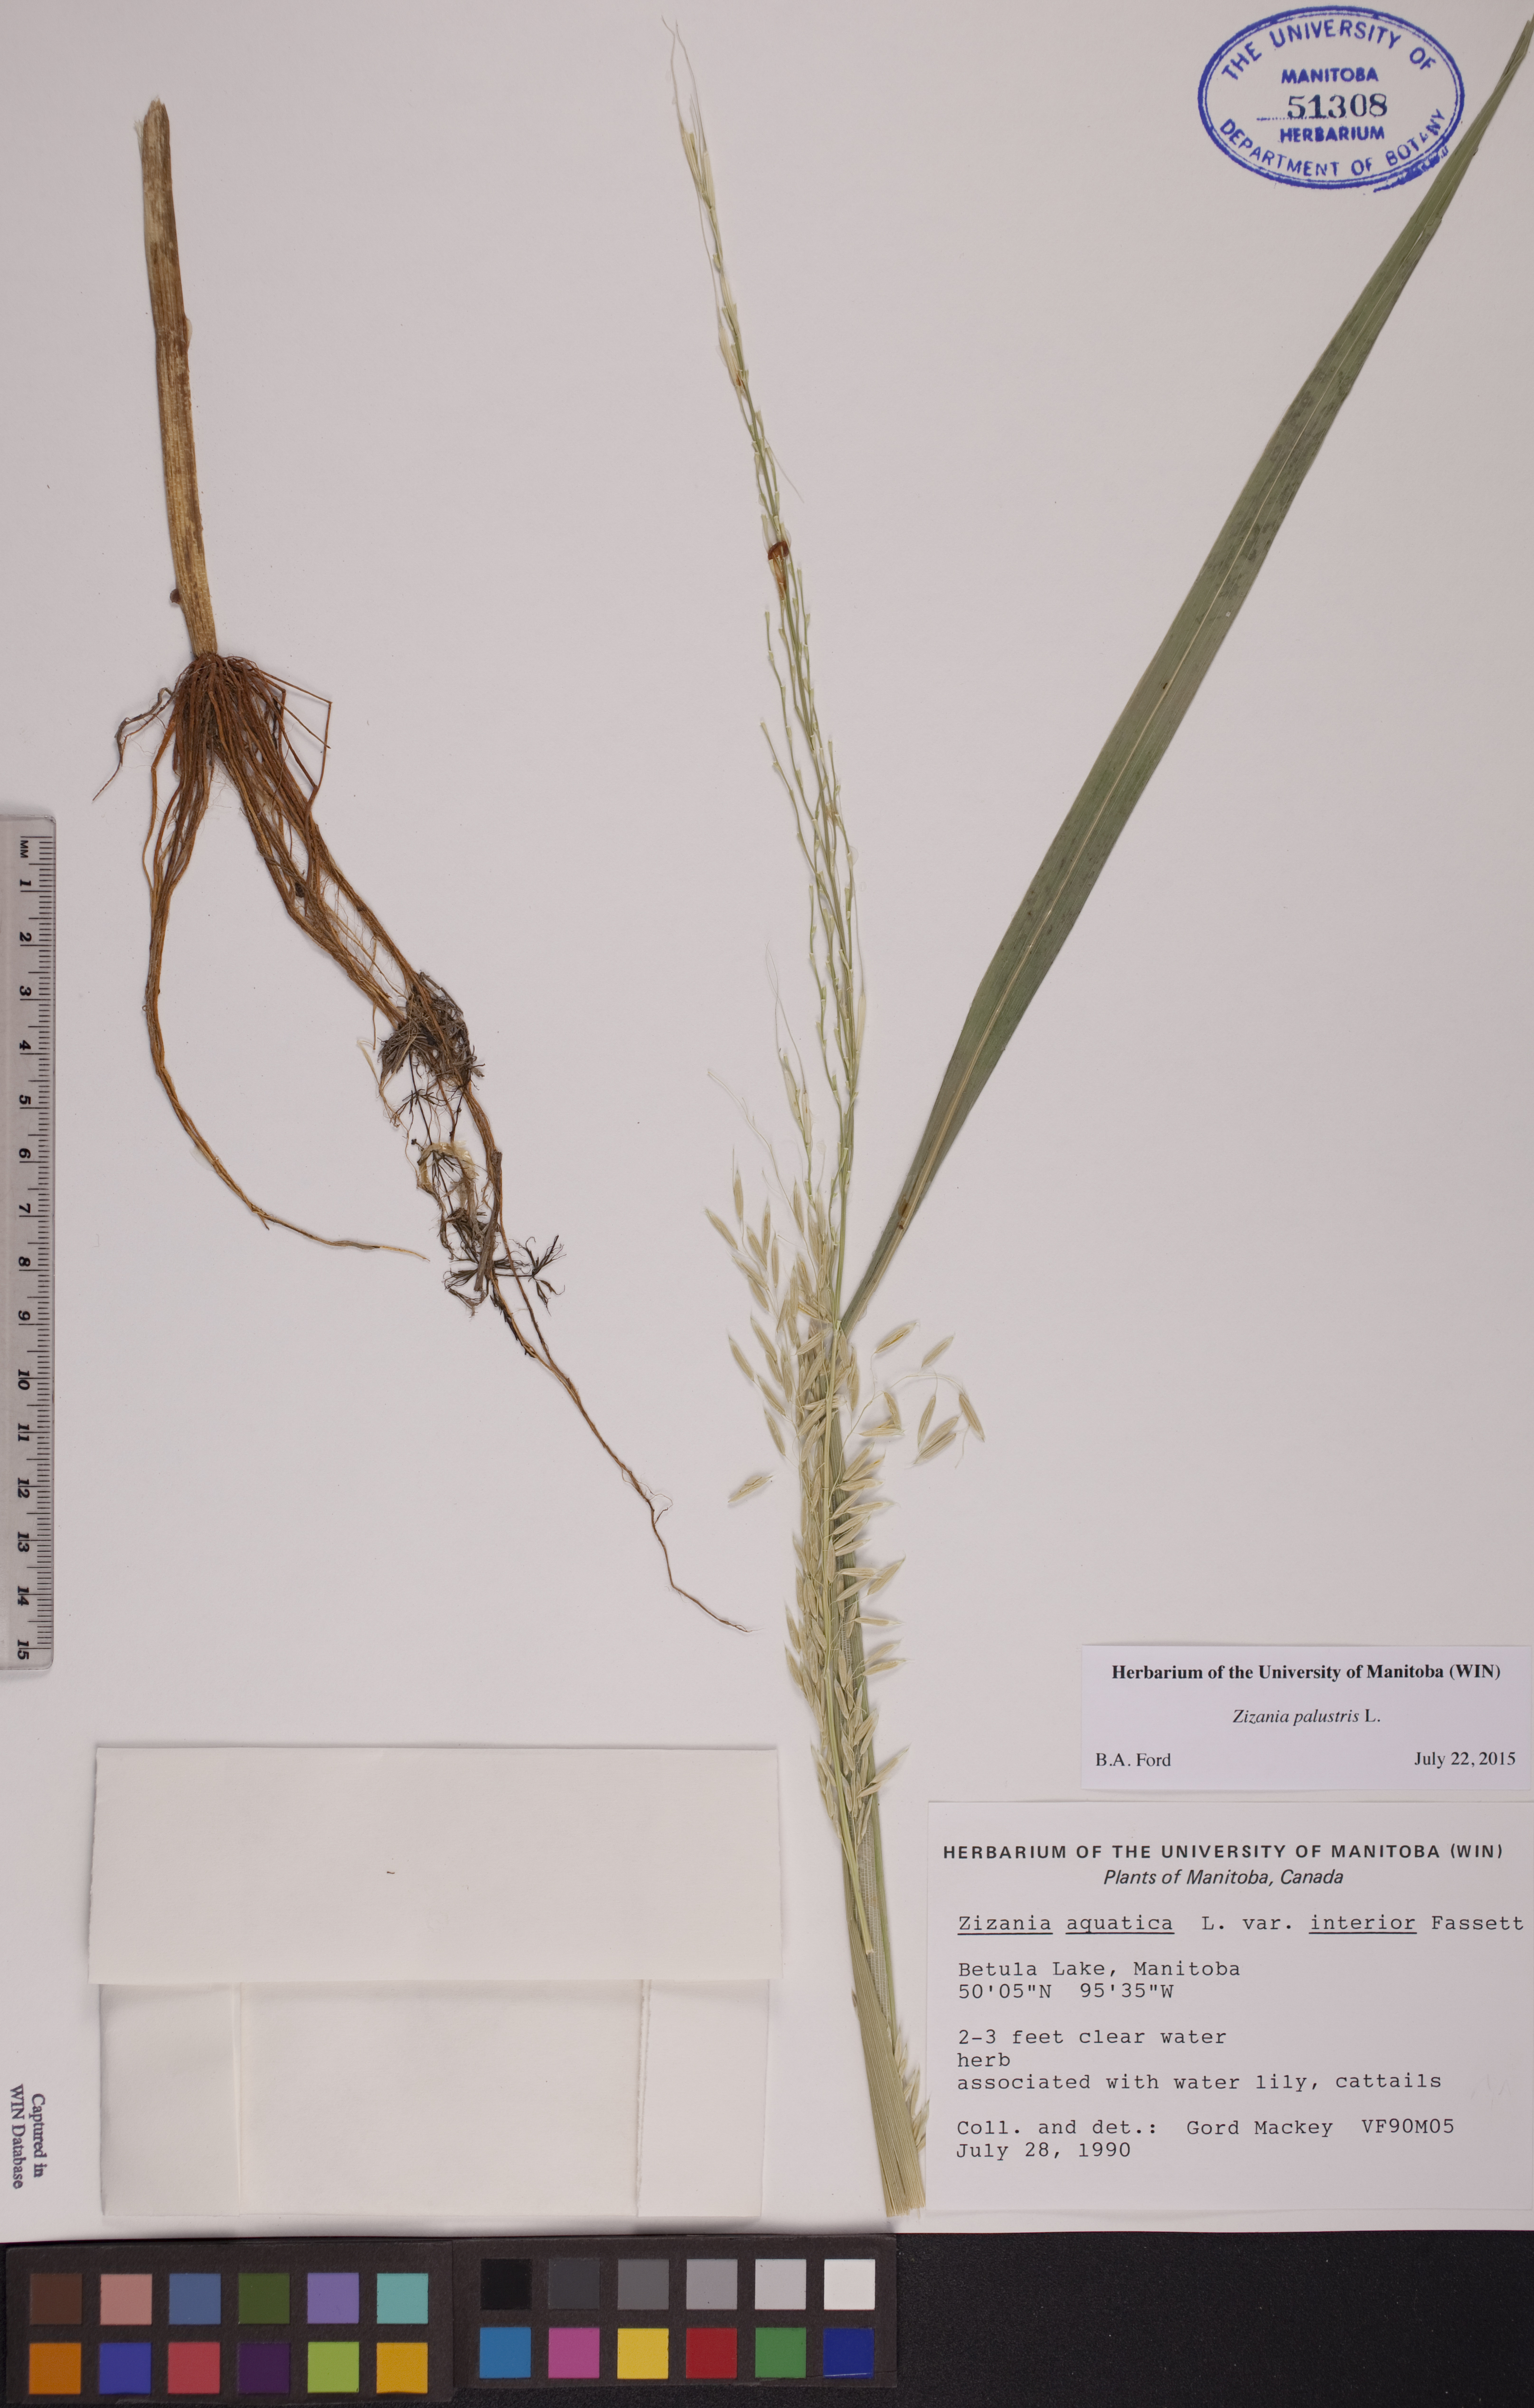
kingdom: Plantae
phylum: Tracheophyta
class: Liliopsida
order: Poales
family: Poaceae
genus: Zizania
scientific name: Zizania palustris
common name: Northern wild rice
